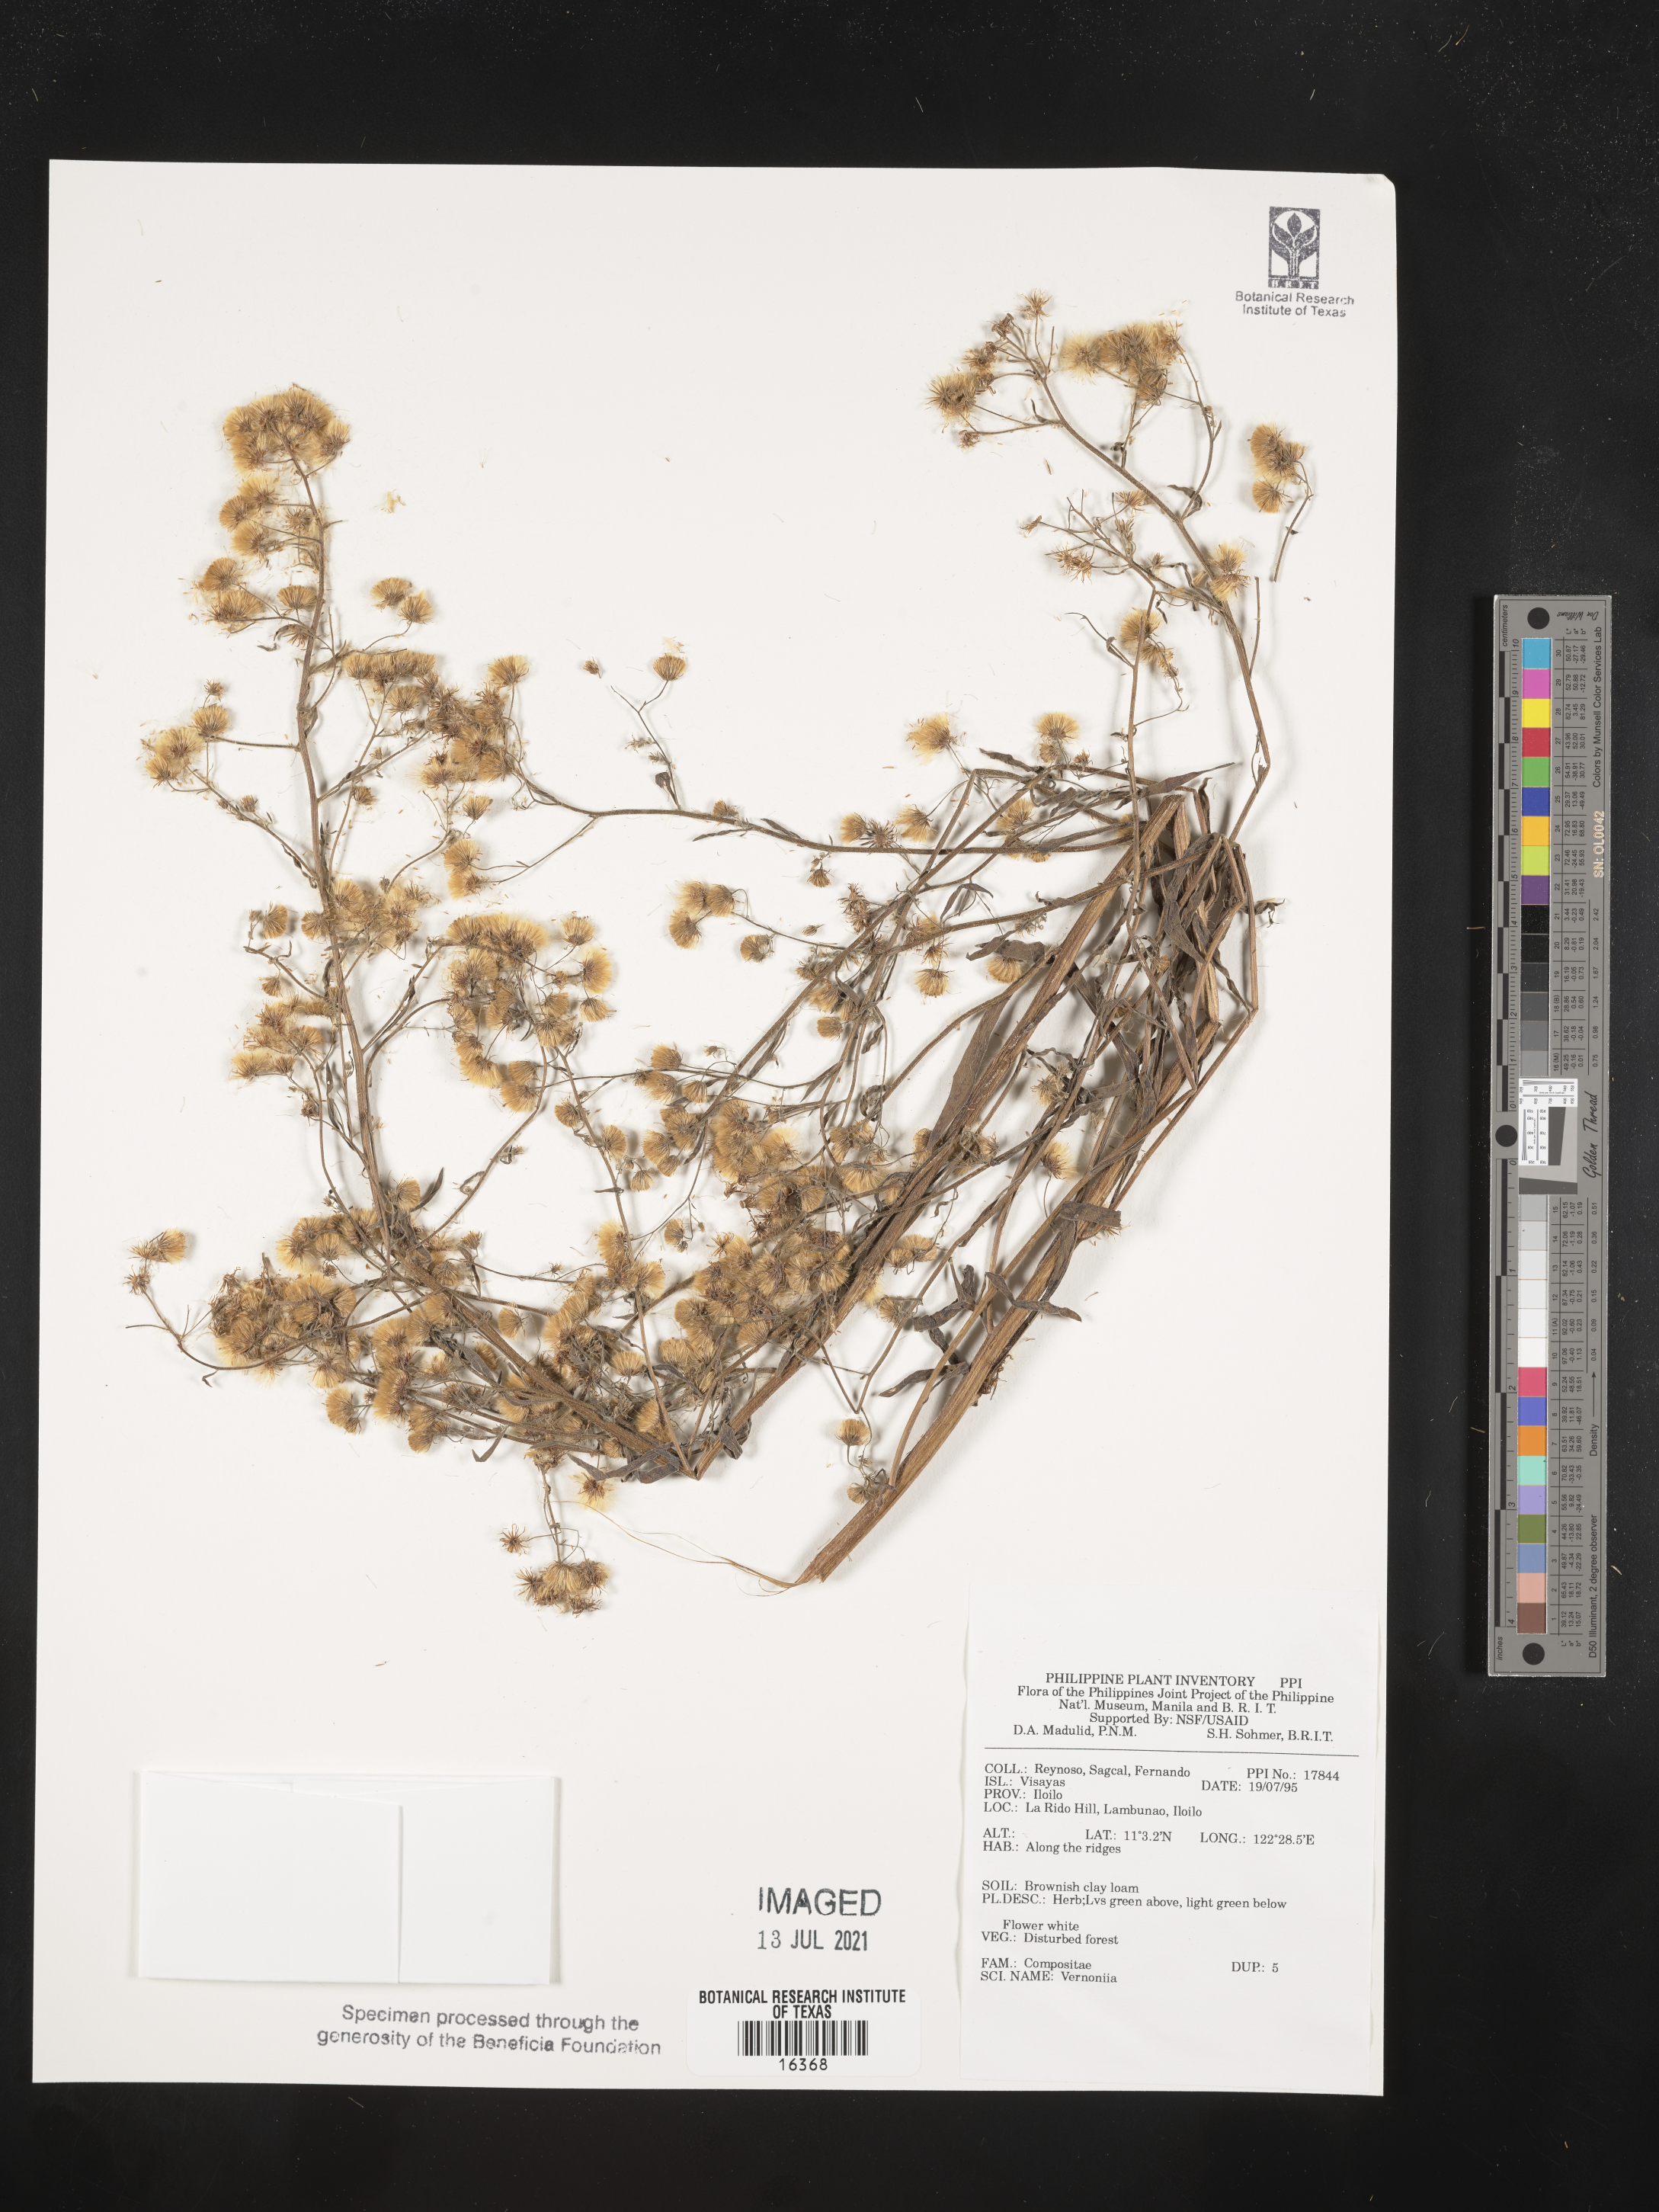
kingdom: Plantae
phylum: Tracheophyta
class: Magnoliopsida
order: Asterales
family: Asteraceae
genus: Vernonia
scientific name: Vernonia
